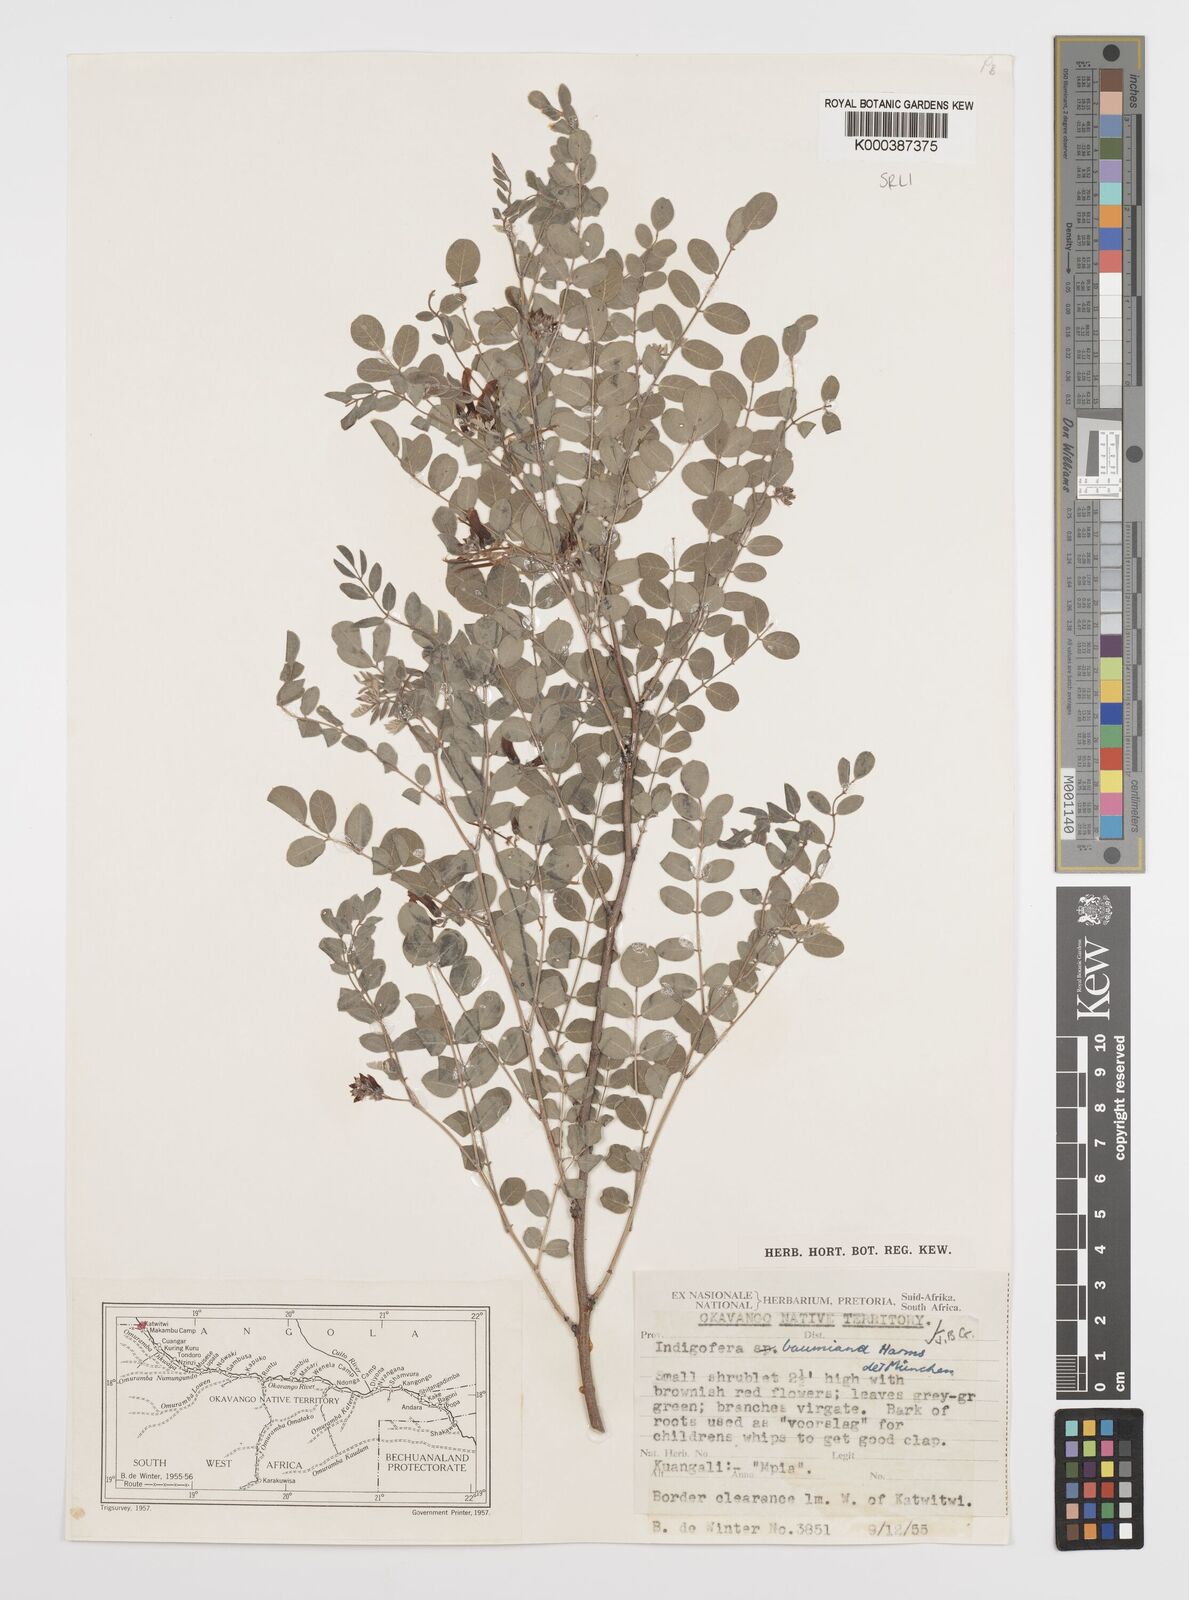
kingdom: Plantae
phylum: Tracheophyta
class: Magnoliopsida
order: Fabales
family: Fabaceae
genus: Indigofera
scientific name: Indigofera baumiana
